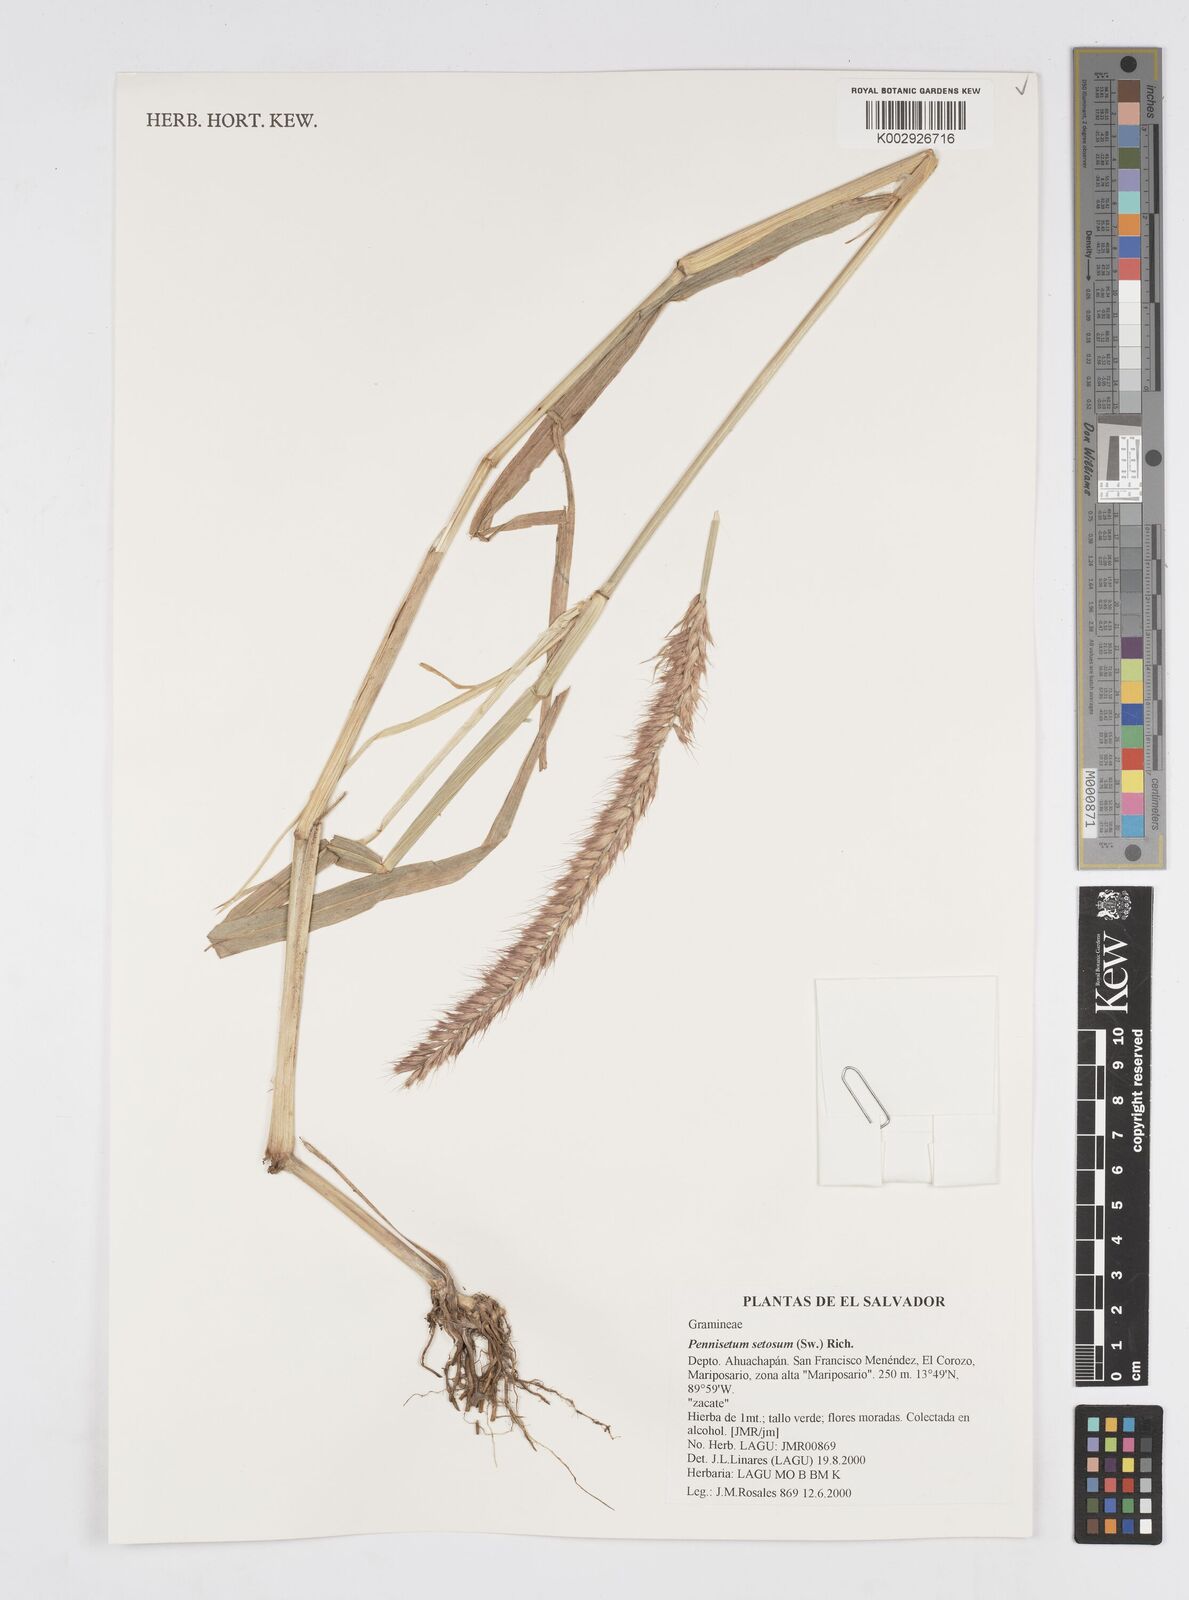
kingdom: Plantae
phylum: Tracheophyta
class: Liliopsida
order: Poales
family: Poaceae
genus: Setaria
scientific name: Setaria parviflora
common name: Knotroot bristle-grass
